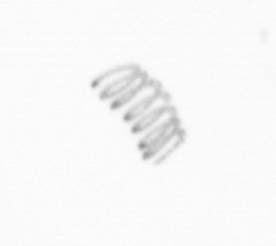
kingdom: Chromista
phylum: Ochrophyta
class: Bacillariophyceae
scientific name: Bacillariophyceae
